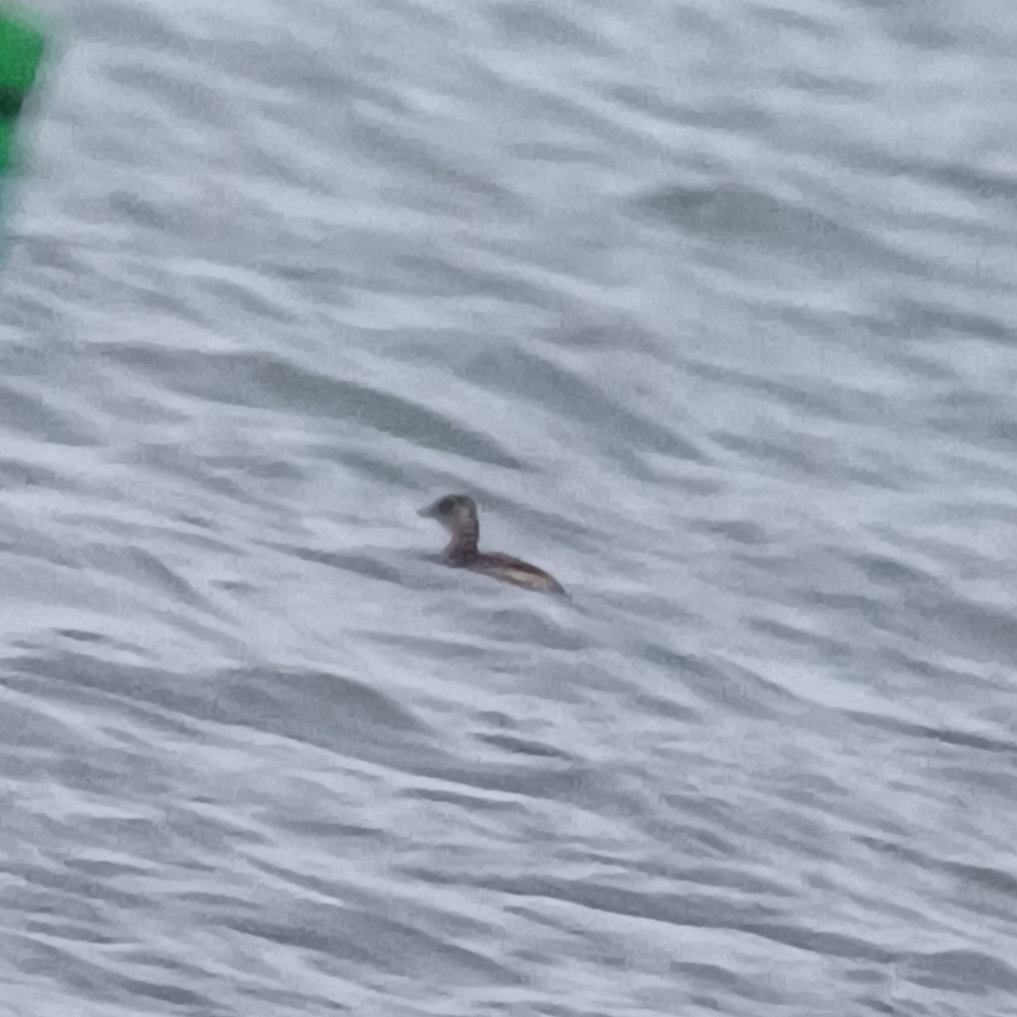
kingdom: Animalia
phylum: Chordata
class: Aves
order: Podicipediformes
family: Podicipedidae
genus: Tachybaptus
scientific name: Tachybaptus ruficollis
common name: Lille lappedykker
